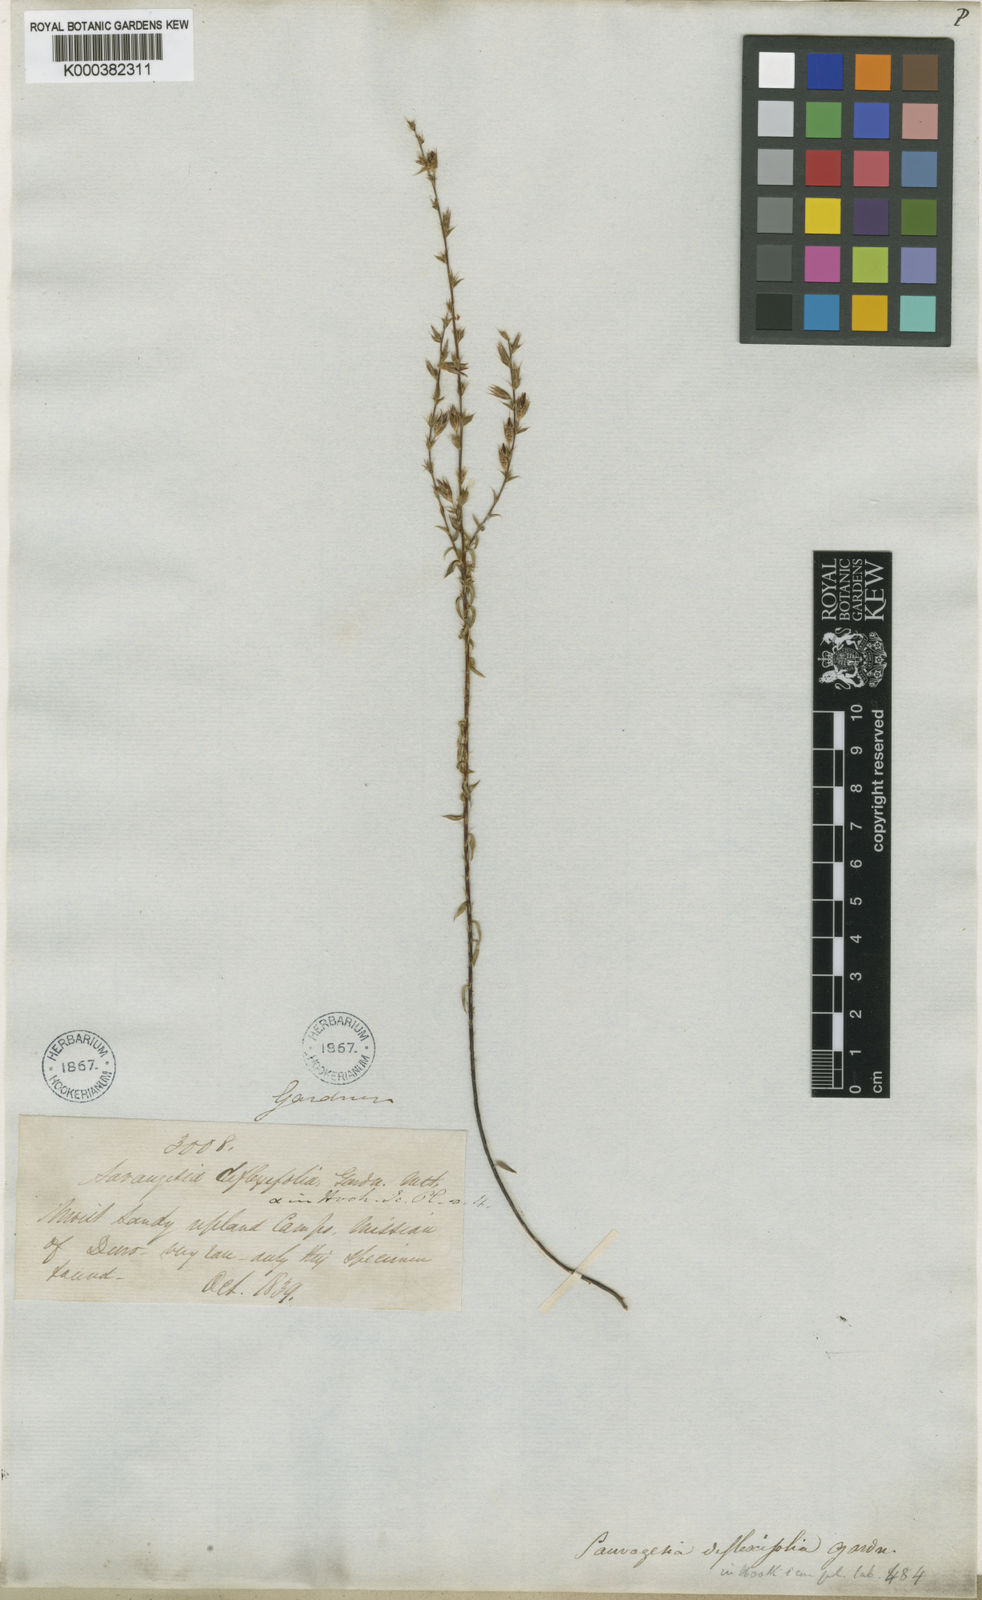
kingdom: Plantae
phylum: Tracheophyta
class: Magnoliopsida
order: Malpighiales
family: Ochnaceae
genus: Sauvagesia
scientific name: Sauvagesia deflexifolia
